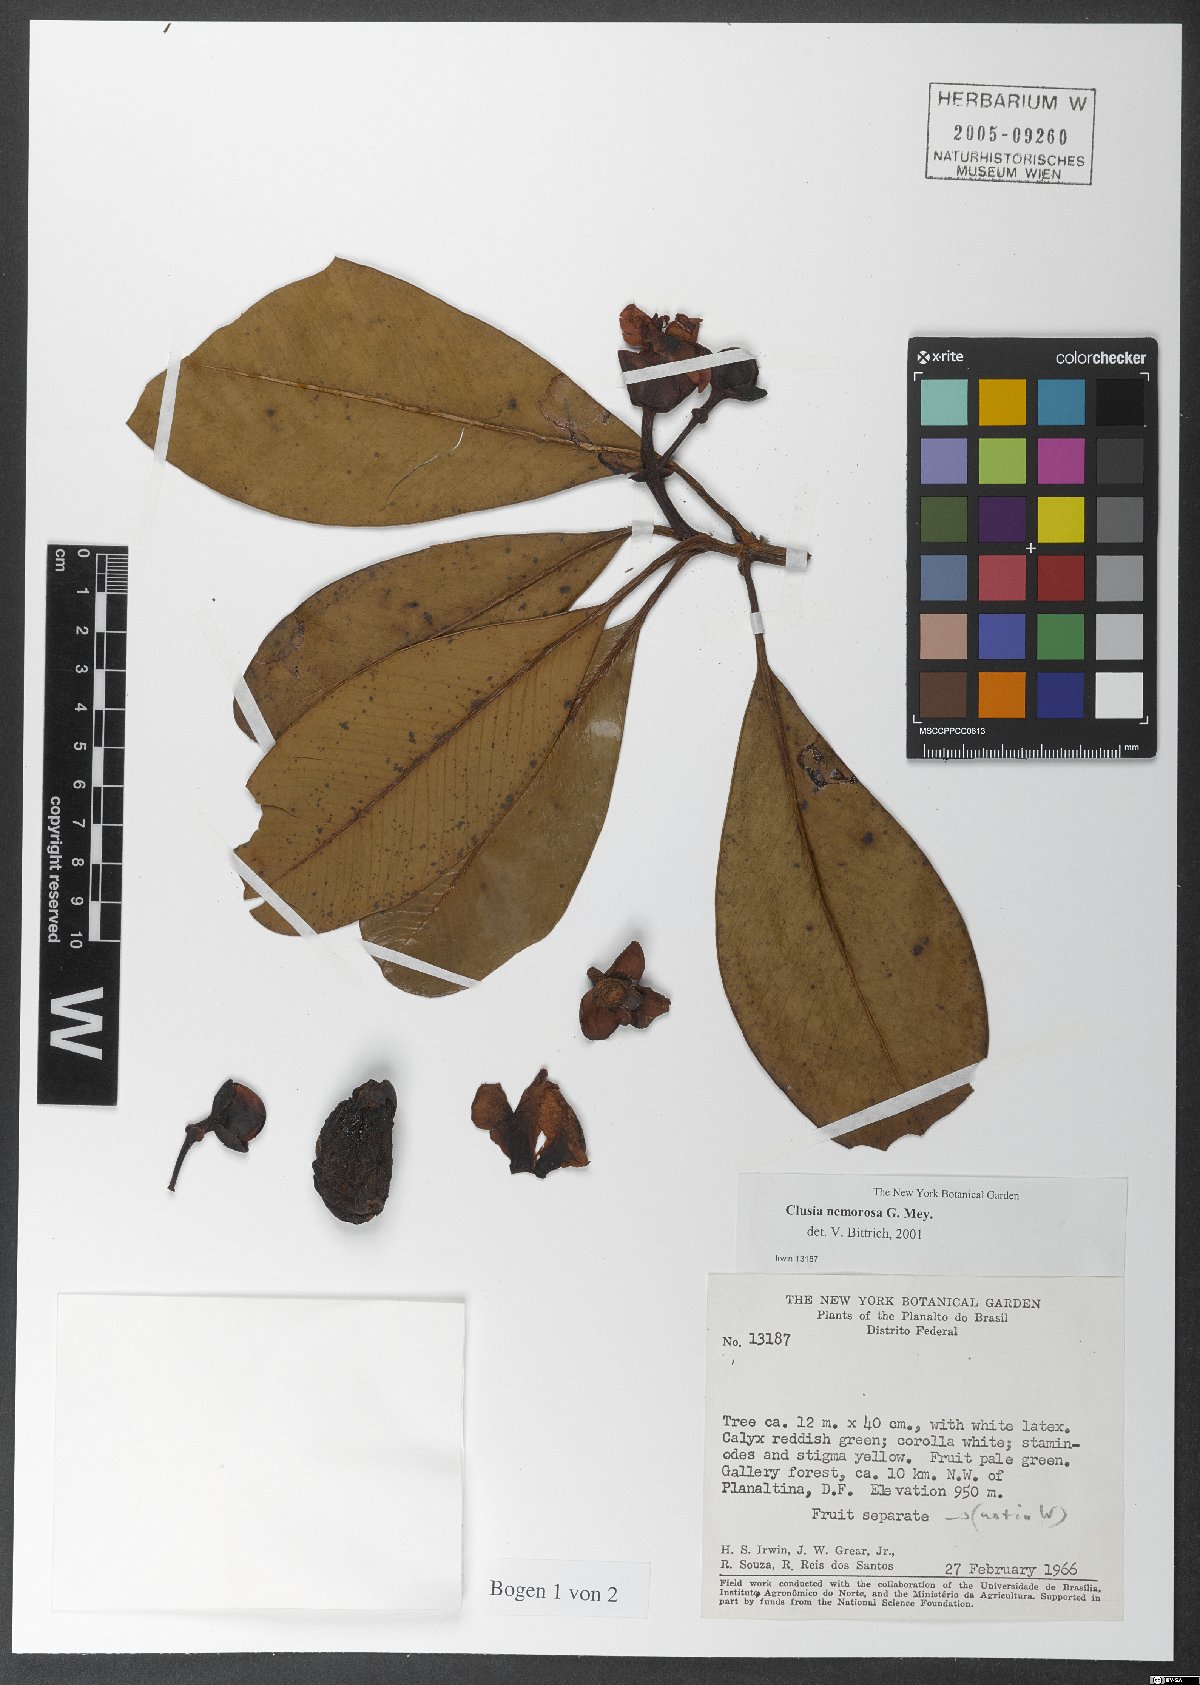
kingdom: Plantae
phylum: Tracheophyta
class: Magnoliopsida
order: Malpighiales
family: Clusiaceae
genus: Clusia
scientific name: Clusia nemorosa
